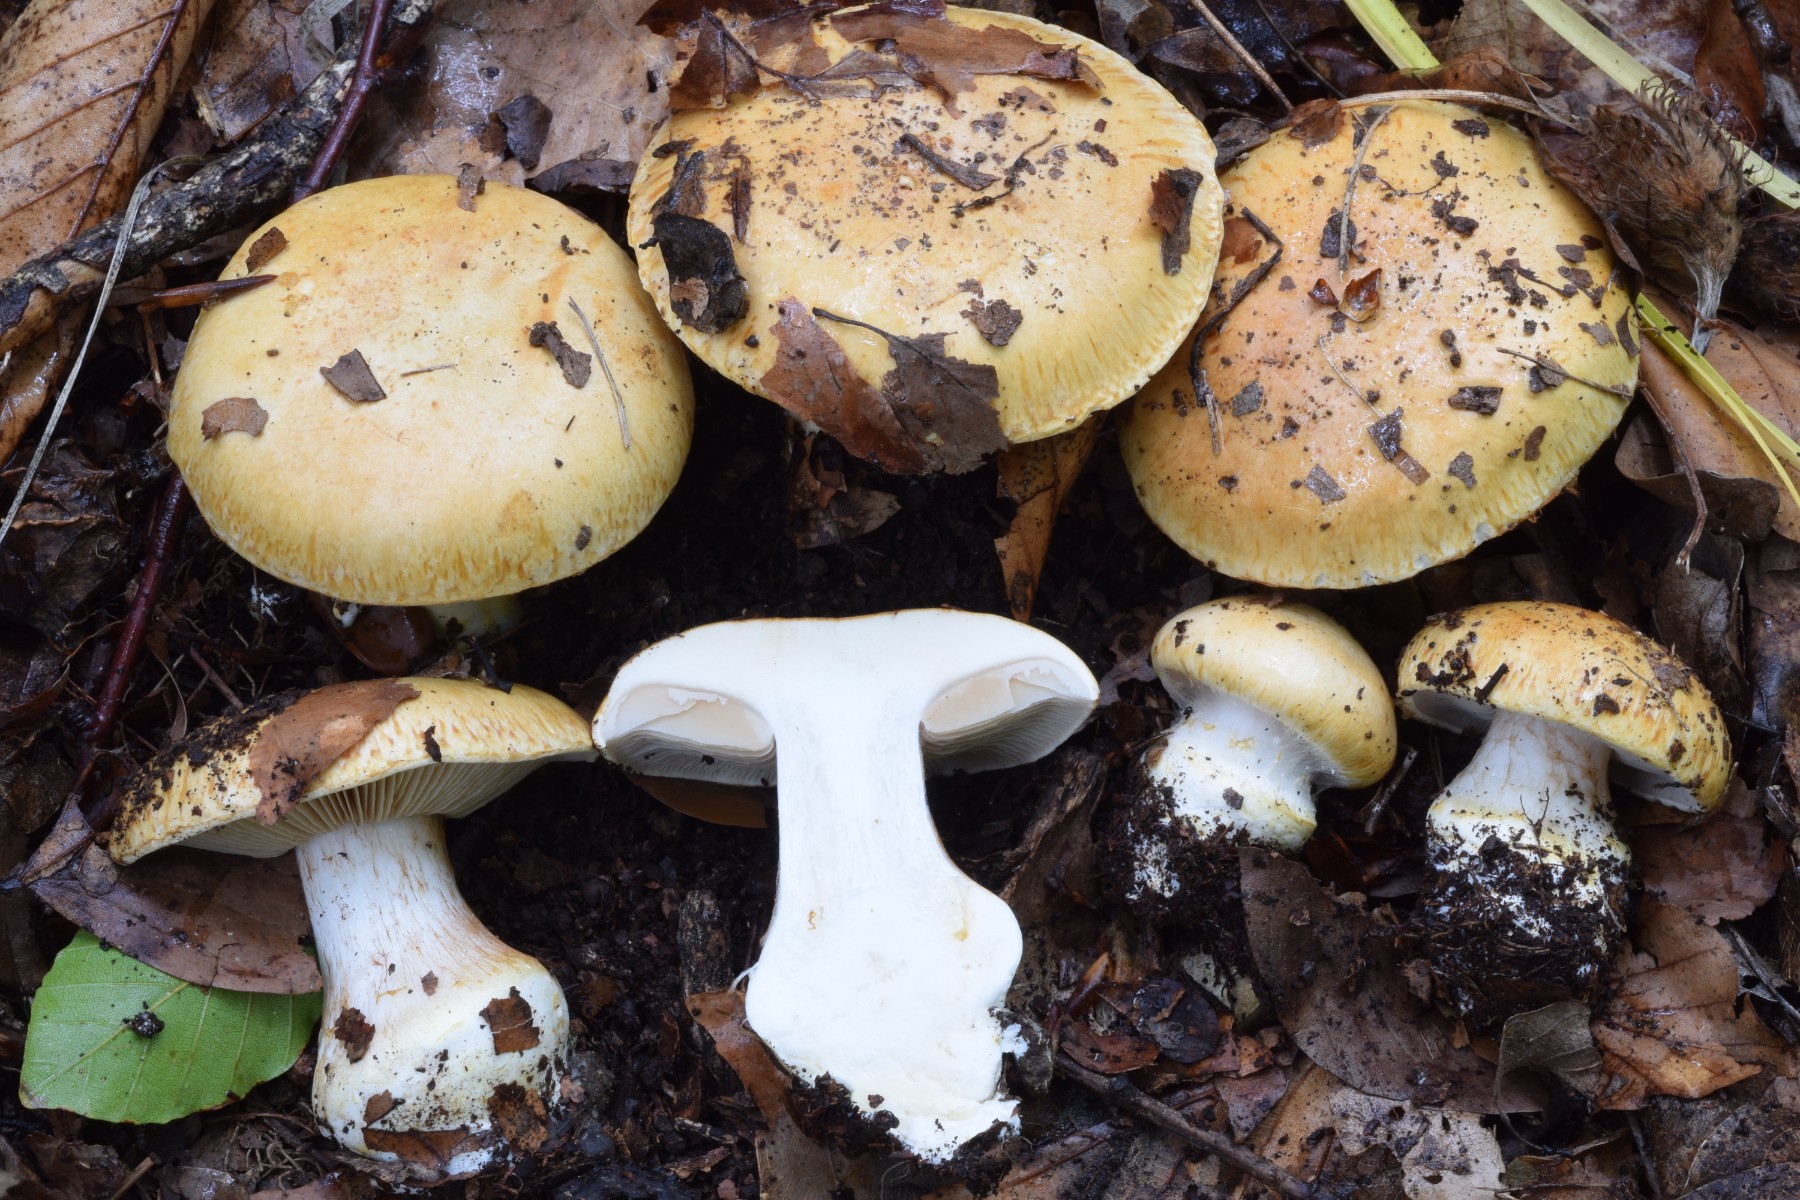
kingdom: Fungi
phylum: Basidiomycota
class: Agaricomycetes
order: Agaricales
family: Cortinariaceae
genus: Phlegmacium
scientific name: Phlegmacium rhizophorum
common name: finkornet slørhat
